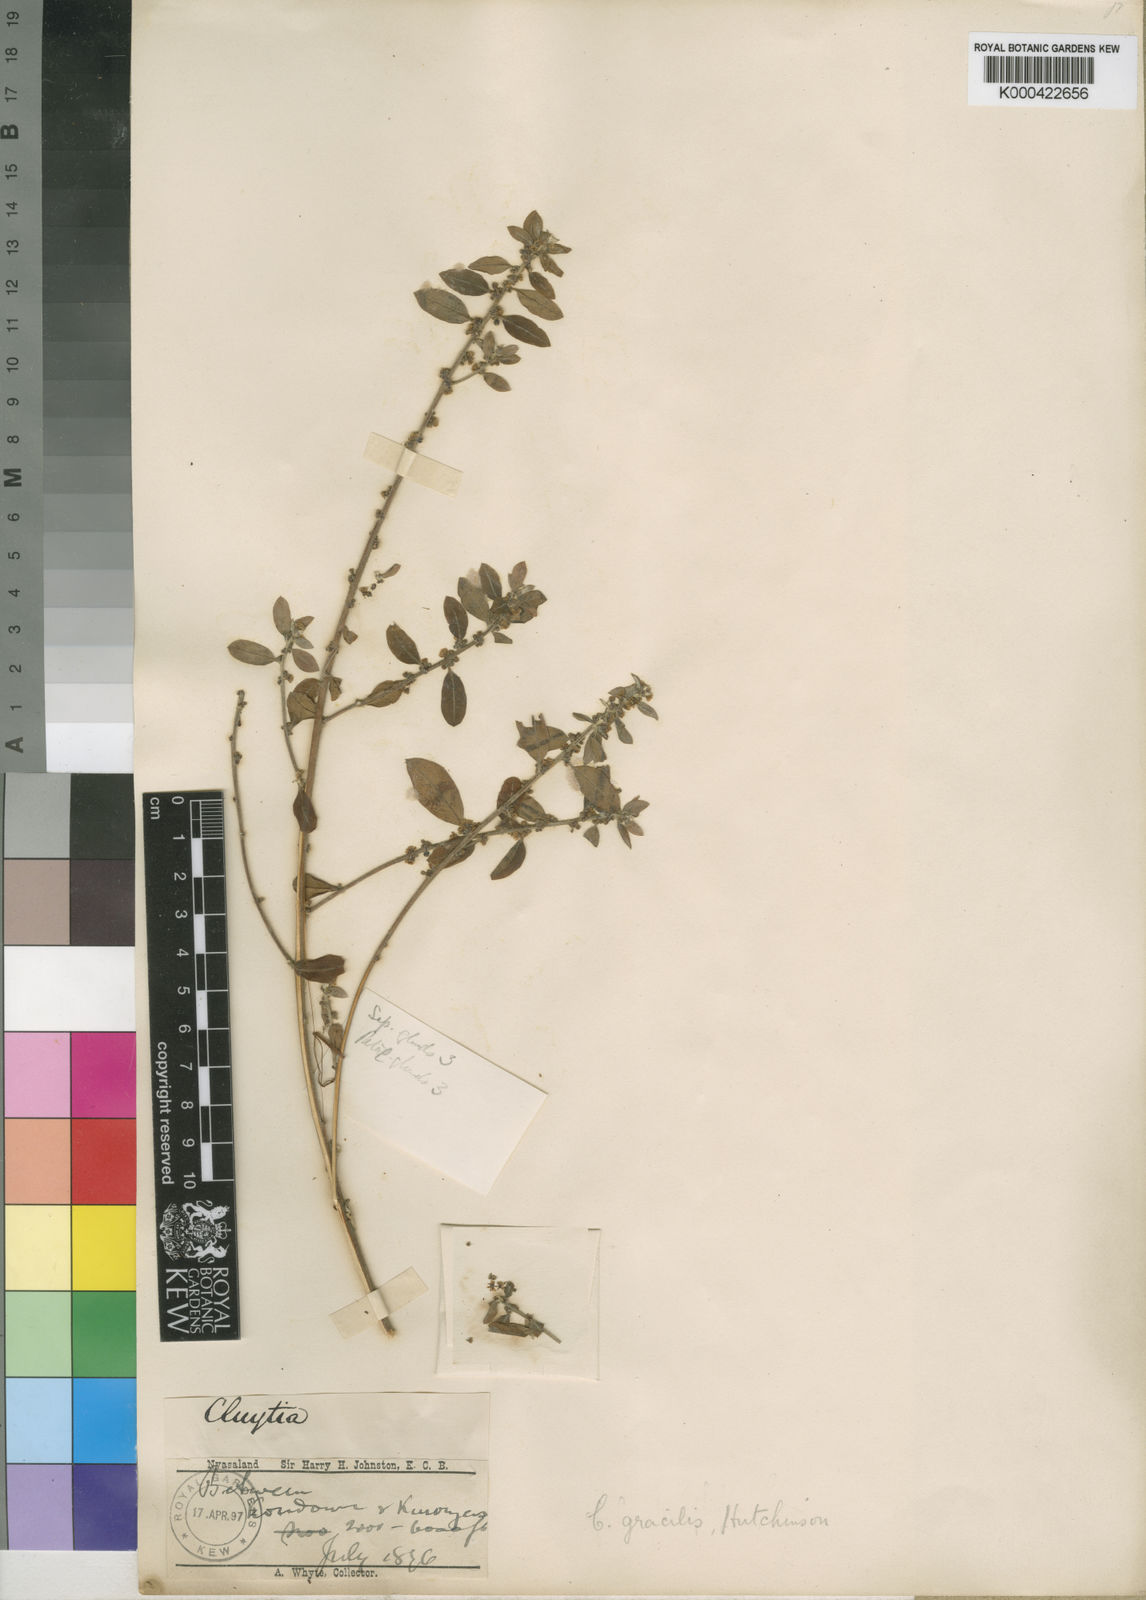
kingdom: Plantae
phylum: Tracheophyta
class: Magnoliopsida
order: Malpighiales
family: Peraceae
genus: Clutia
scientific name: Clutia paxii
